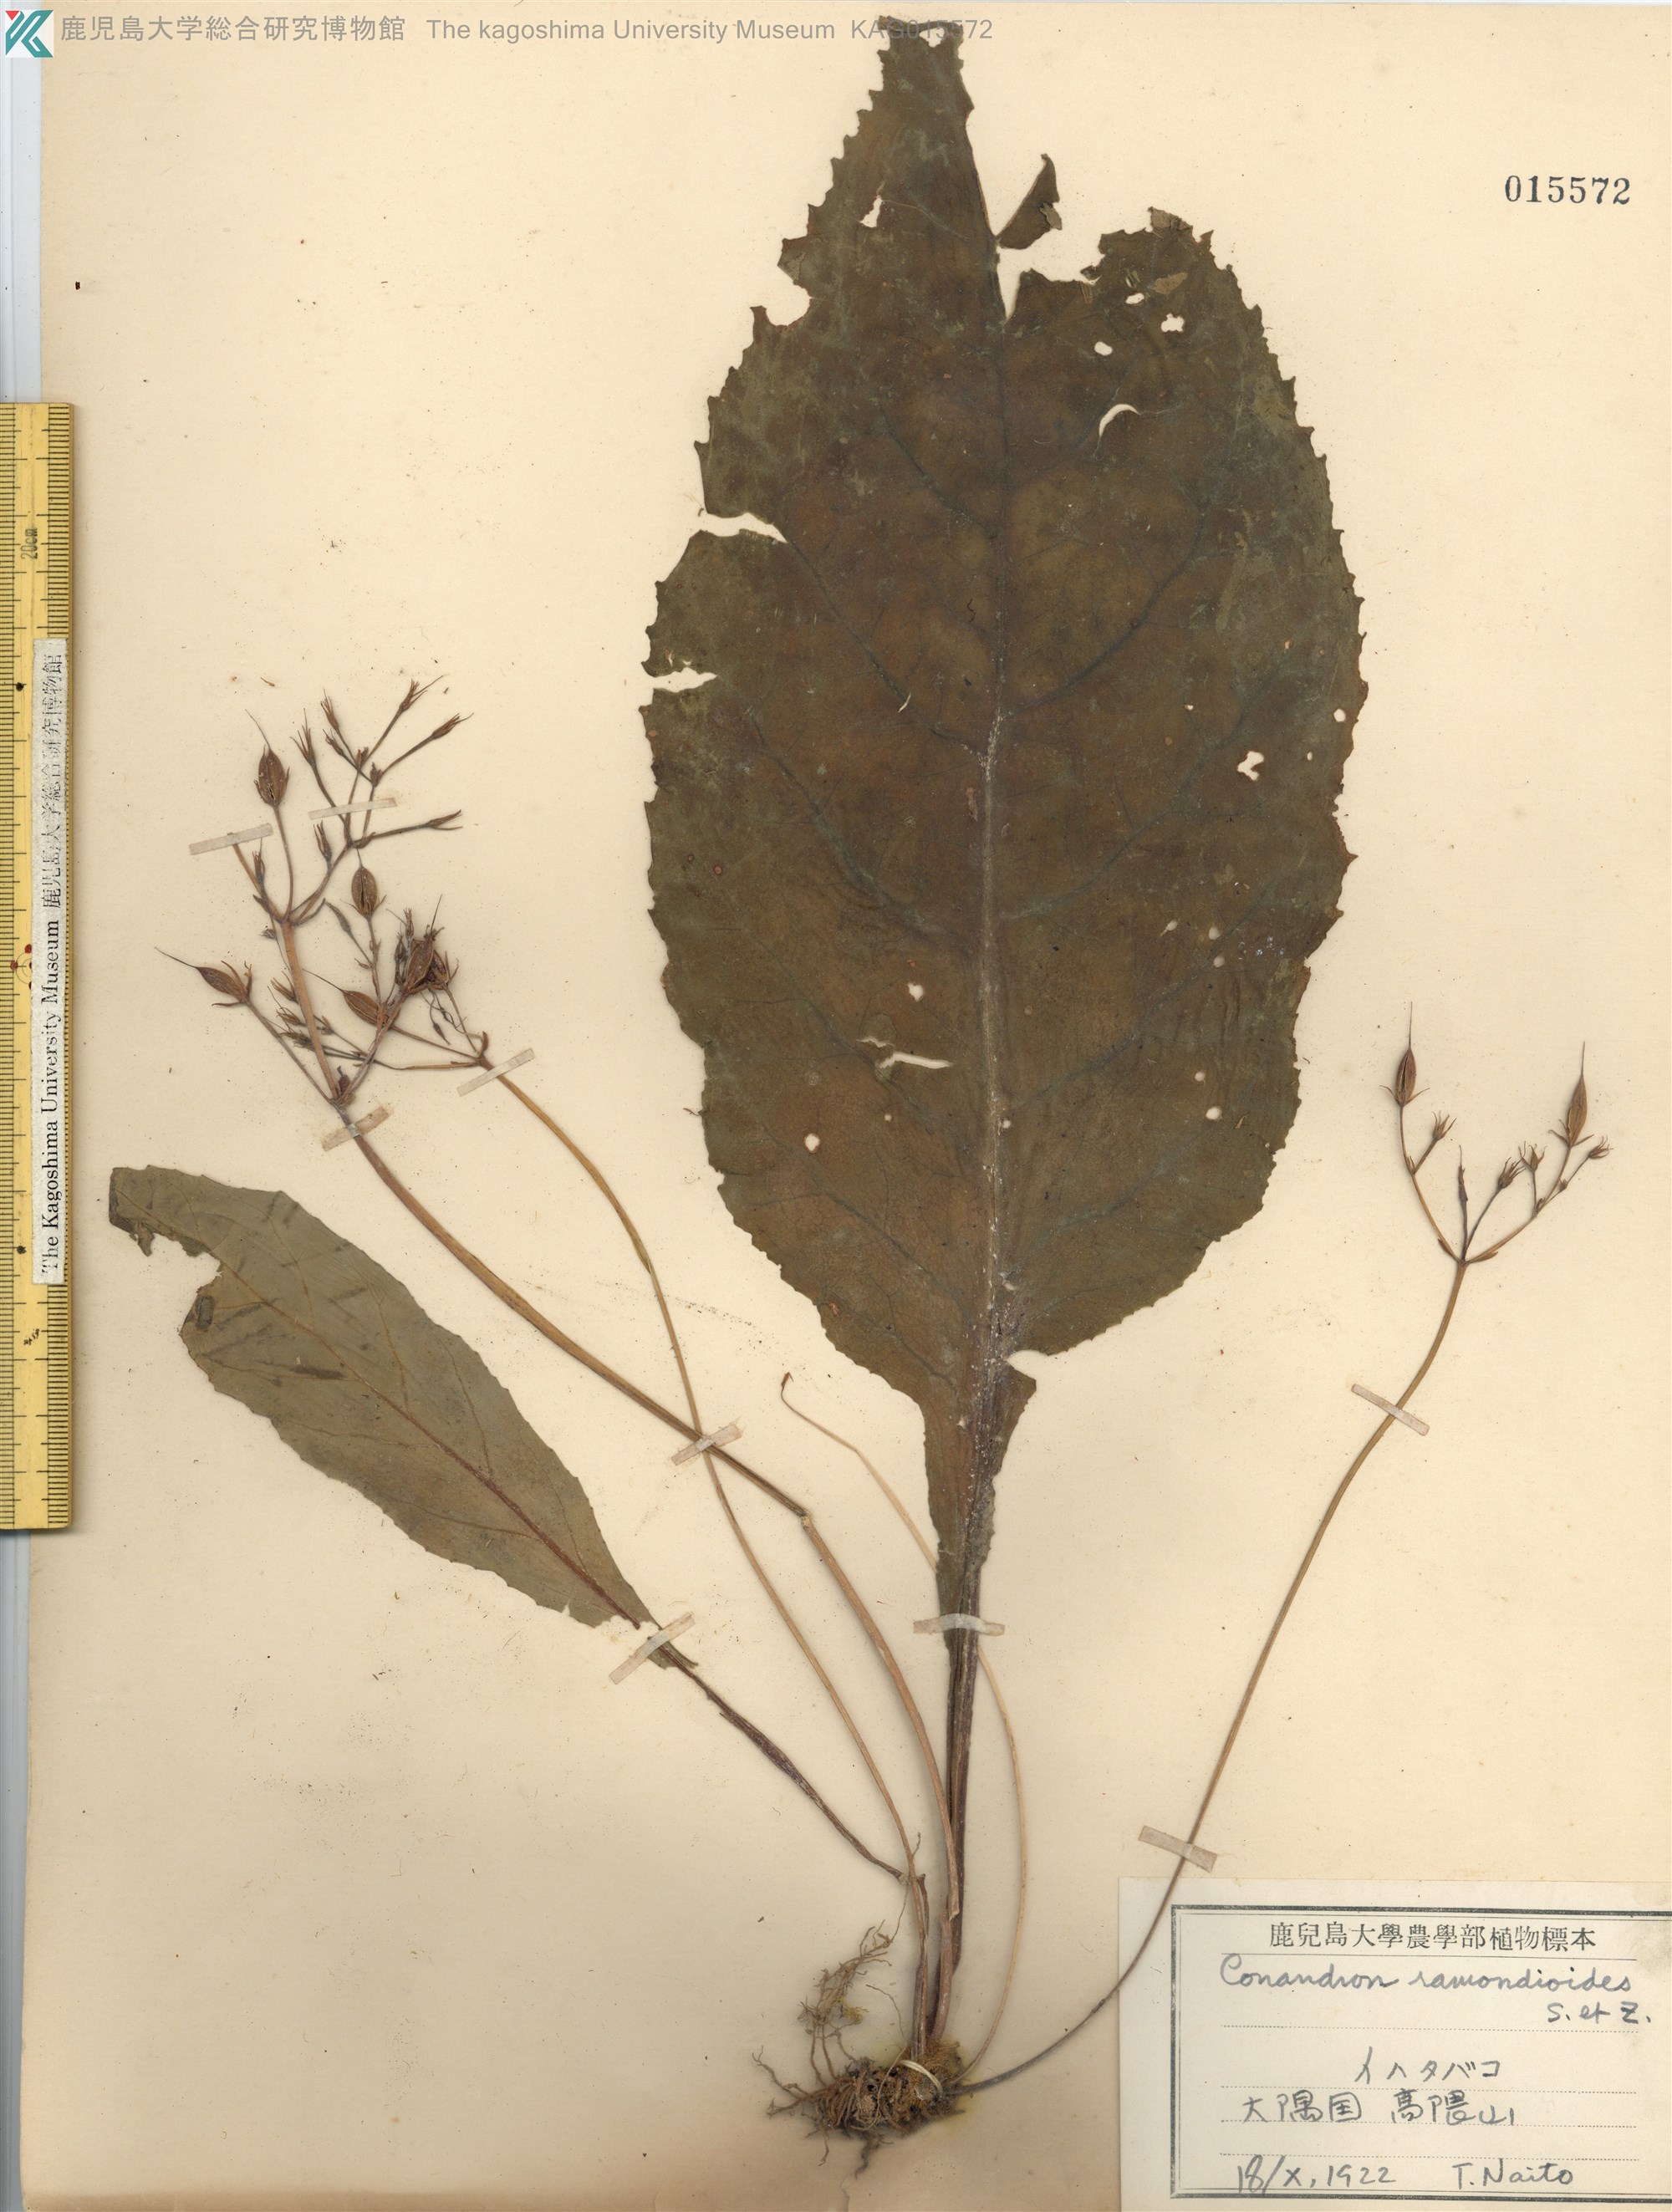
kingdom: Plantae
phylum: Tracheophyta
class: Magnoliopsida
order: Lamiales
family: Gesneriaceae
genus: Conandron
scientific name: Conandron ramondioides
